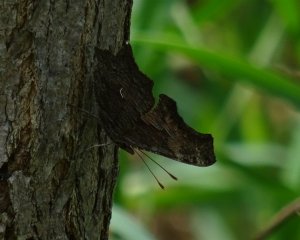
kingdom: Animalia
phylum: Arthropoda
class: Insecta
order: Lepidoptera
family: Nymphalidae
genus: Polygonia
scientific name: Polygonia progne
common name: Gray Comma
